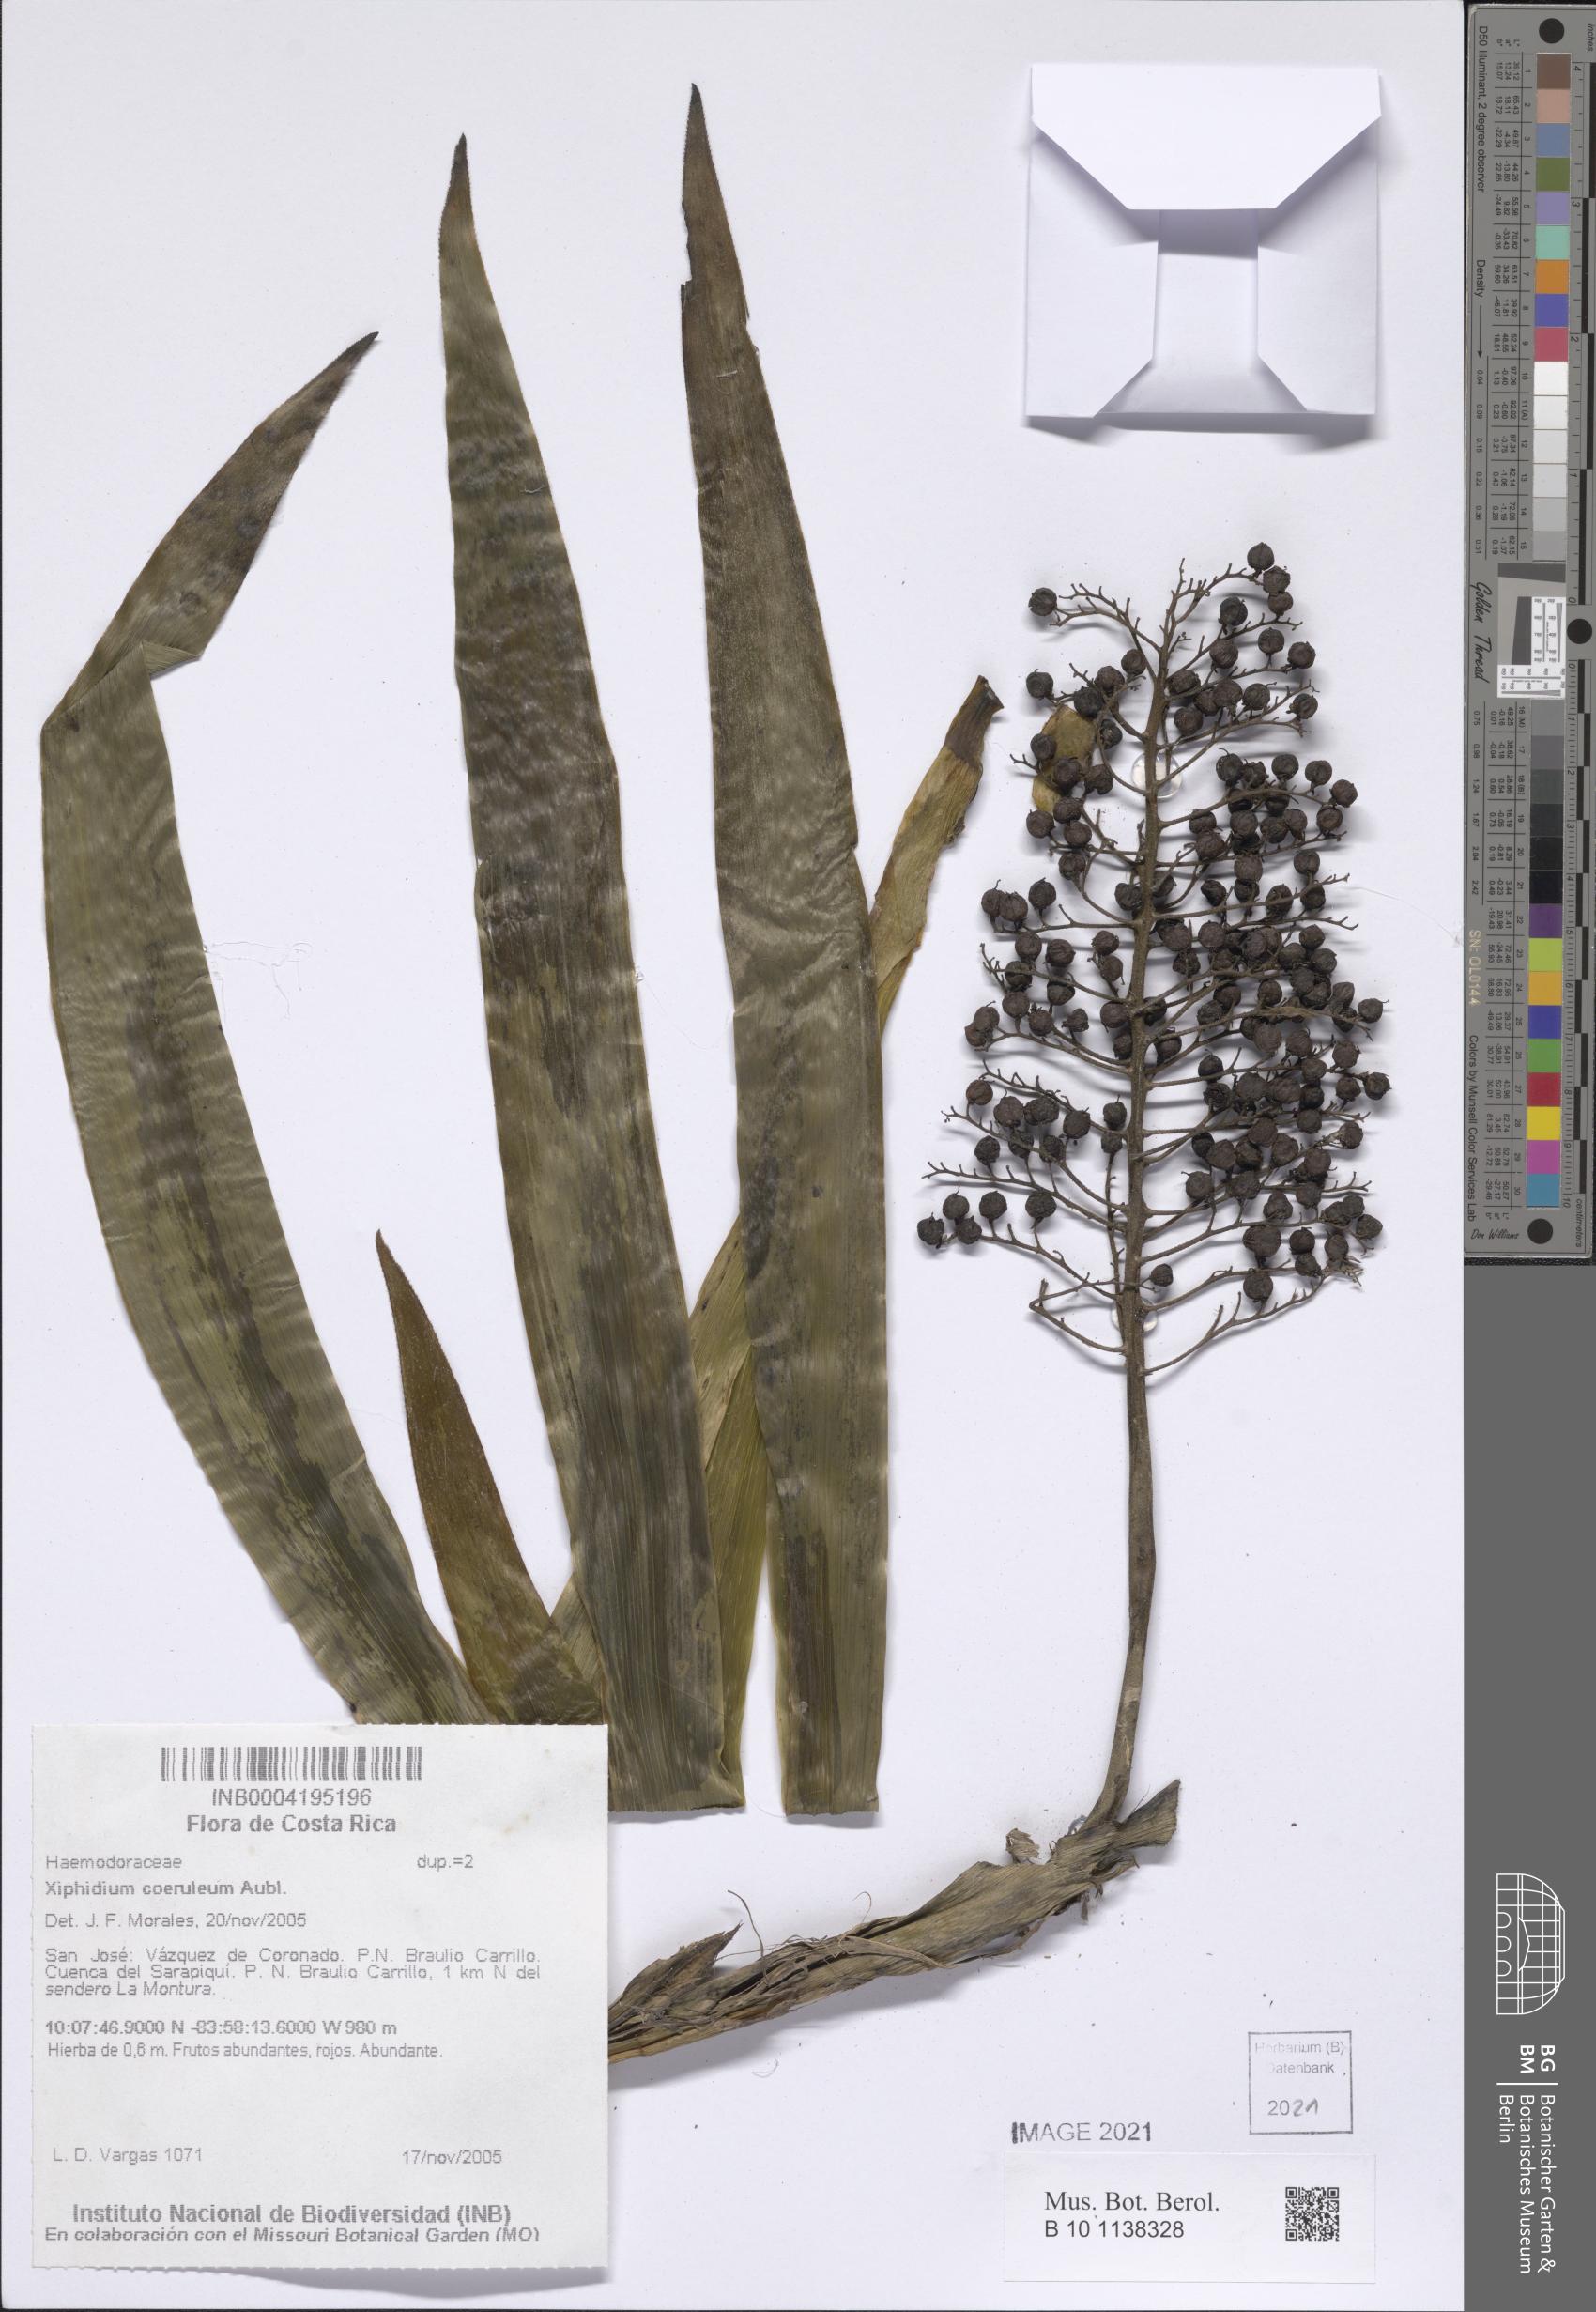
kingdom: Plantae
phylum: Tracheophyta
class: Liliopsida
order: Commelinales
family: Haemodoraceae
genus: Xiphidium
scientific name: Xiphidium caeruleum
